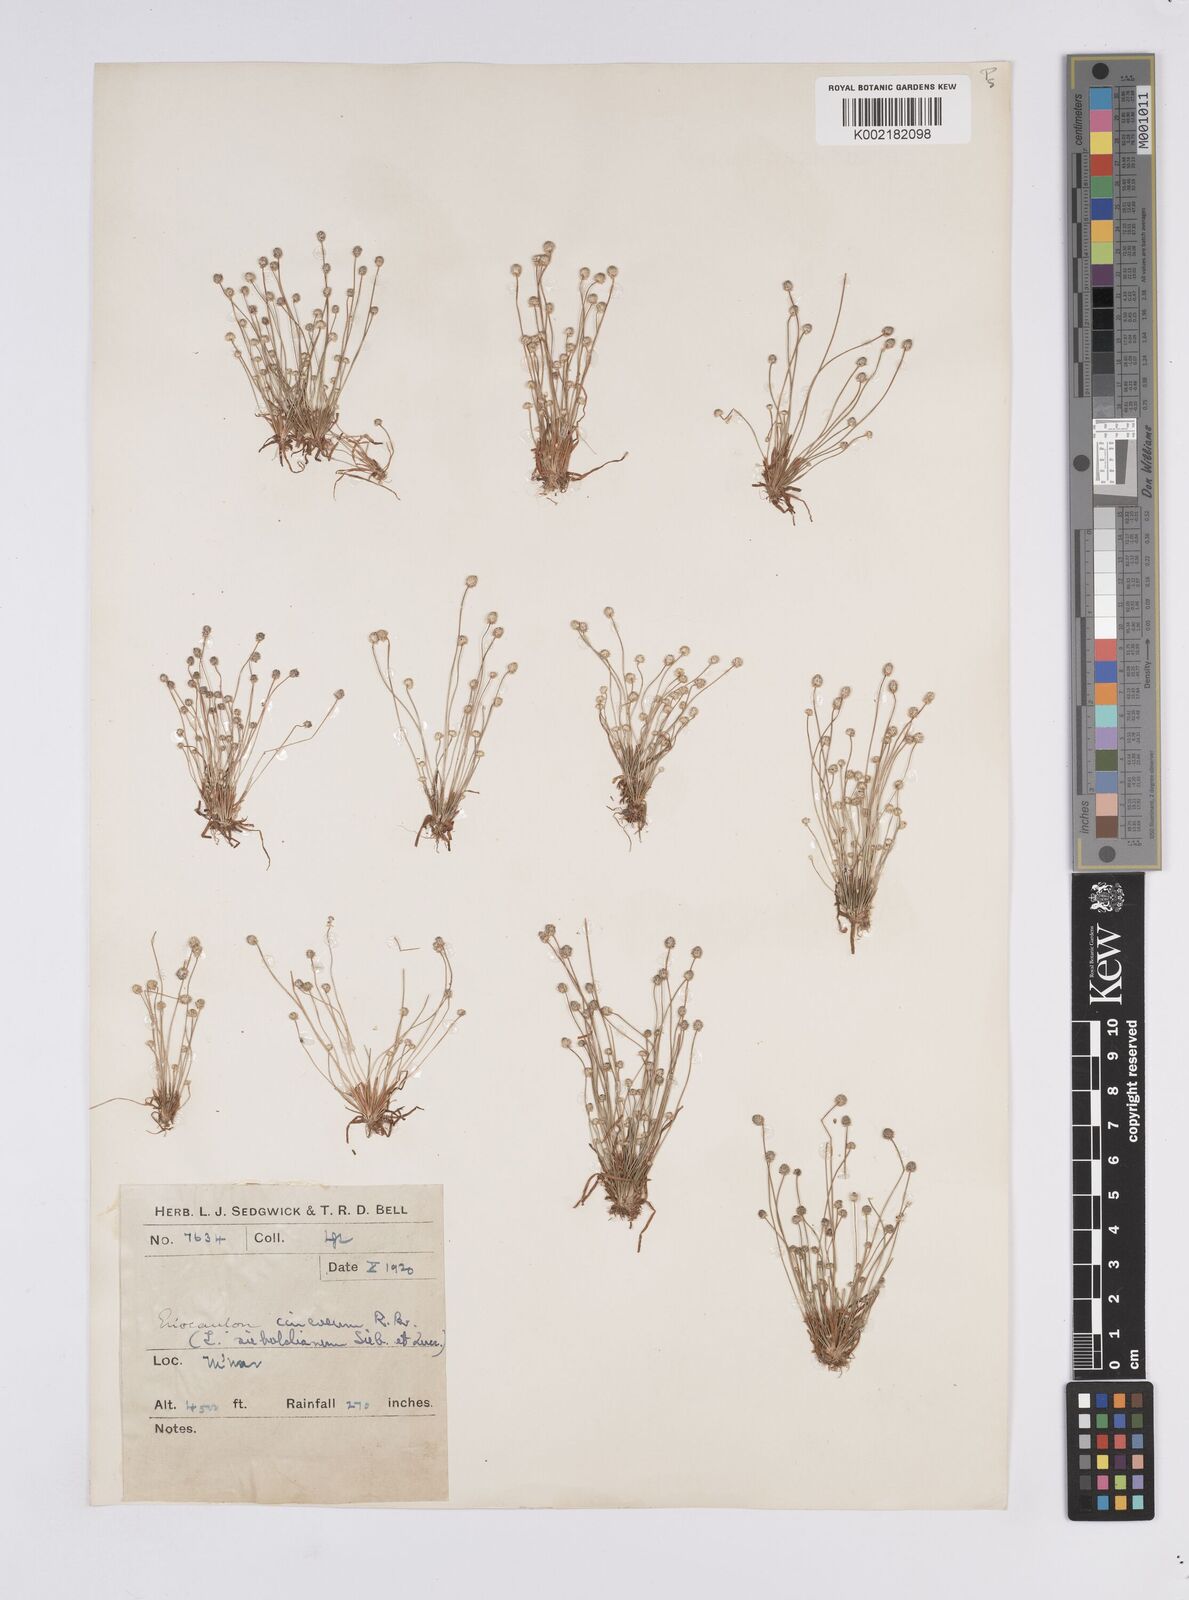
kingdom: Plantae
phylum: Tracheophyta
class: Liliopsida
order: Poales
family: Eriocaulaceae
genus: Eriocaulon
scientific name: Eriocaulon cinereum
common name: Ashy pipewort
